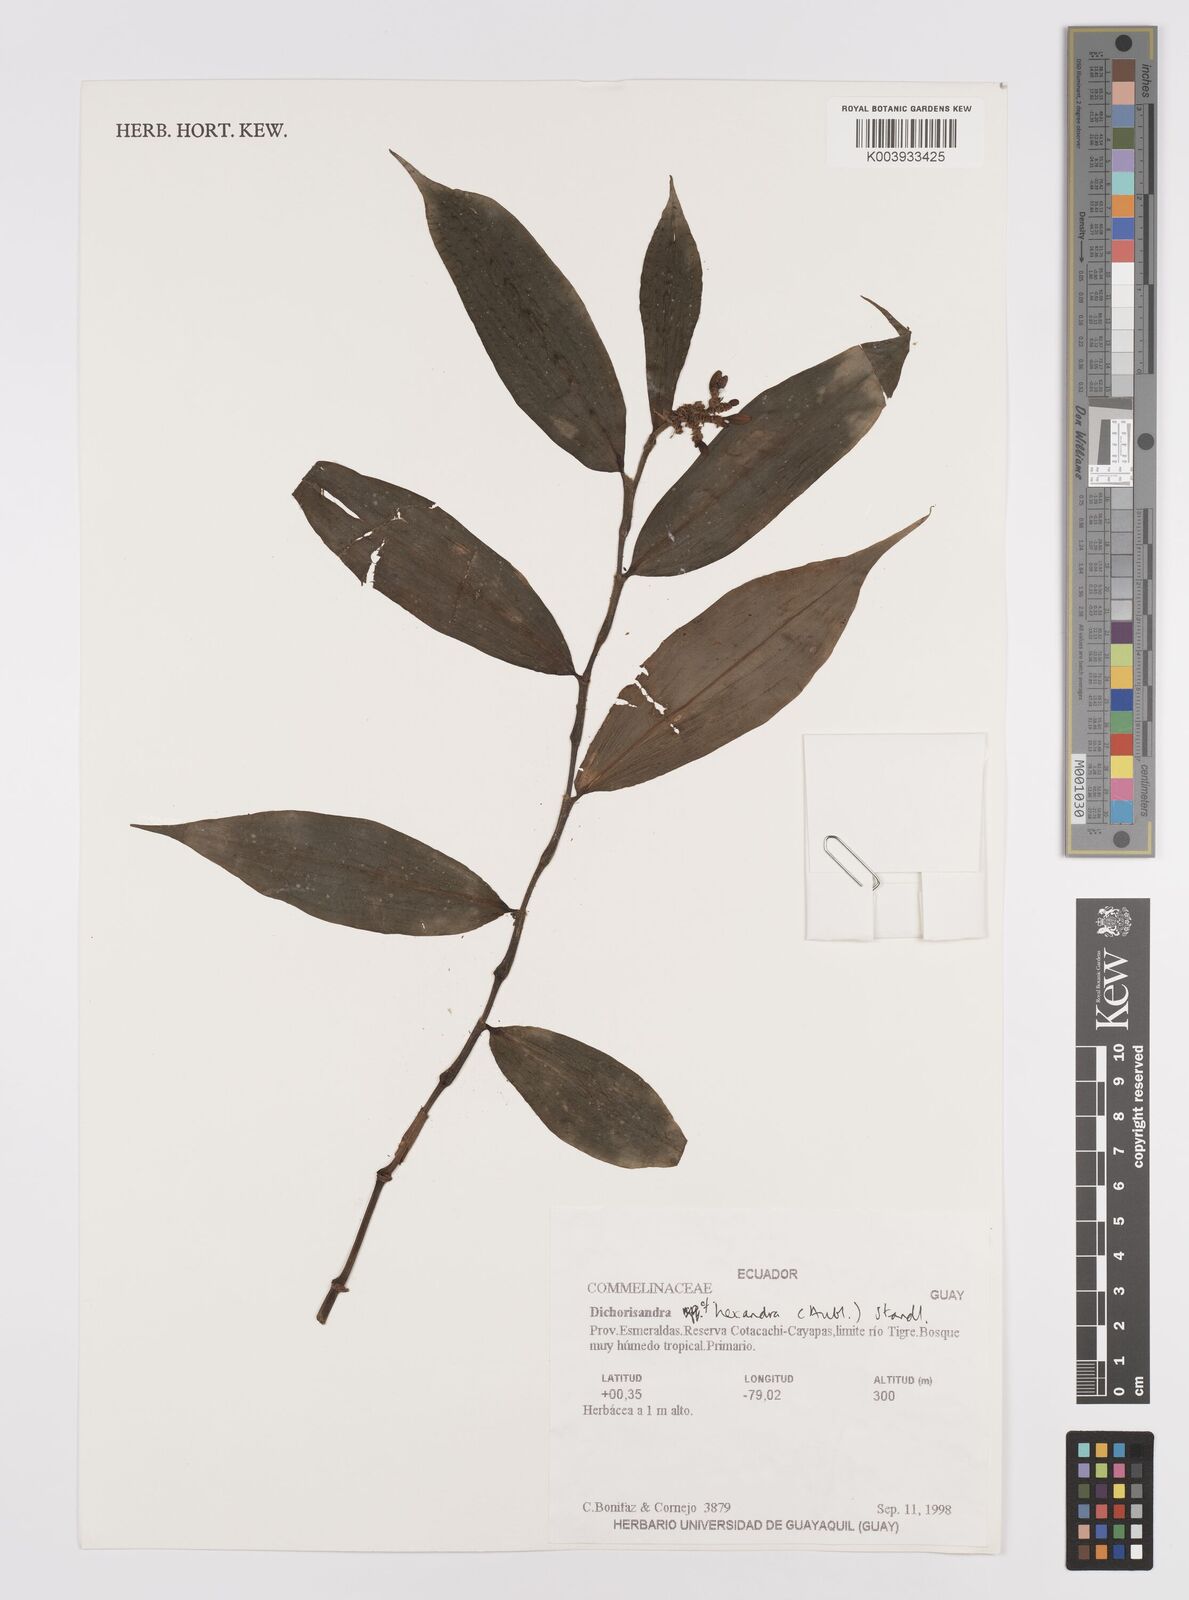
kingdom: Plantae
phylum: Tracheophyta
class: Liliopsida
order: Commelinales
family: Commelinaceae
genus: Dichorisandra
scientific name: Dichorisandra hexandra
